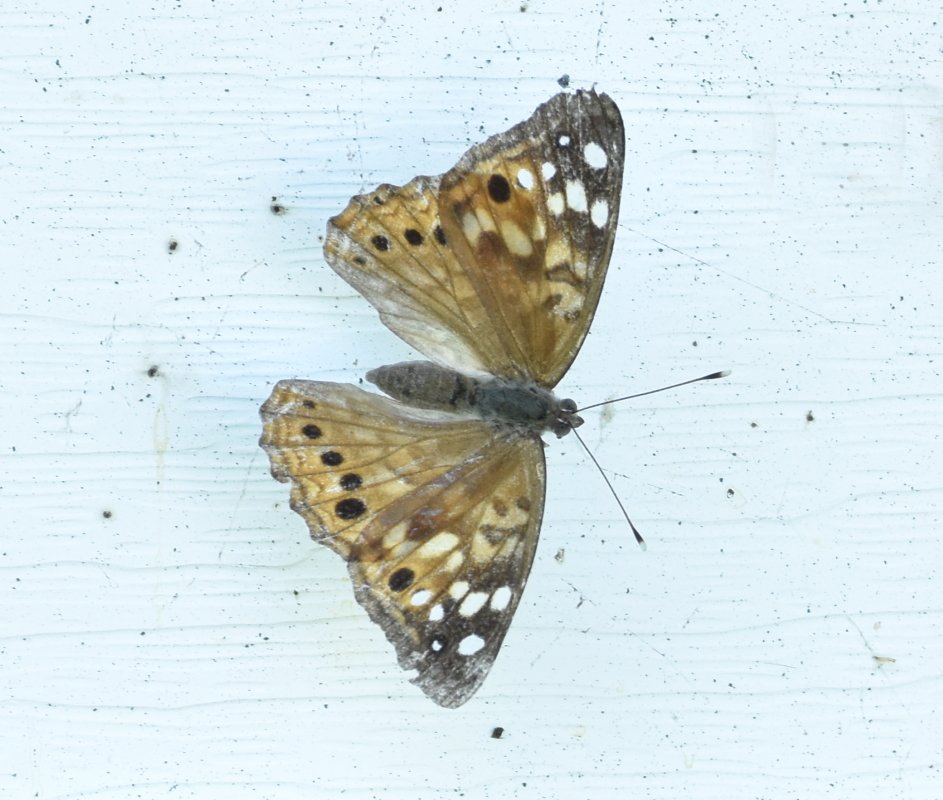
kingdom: Animalia
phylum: Arthropoda
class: Insecta
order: Lepidoptera
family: Nymphalidae
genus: Asterocampa
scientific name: Asterocampa celtis
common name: Hackberry Emperor
